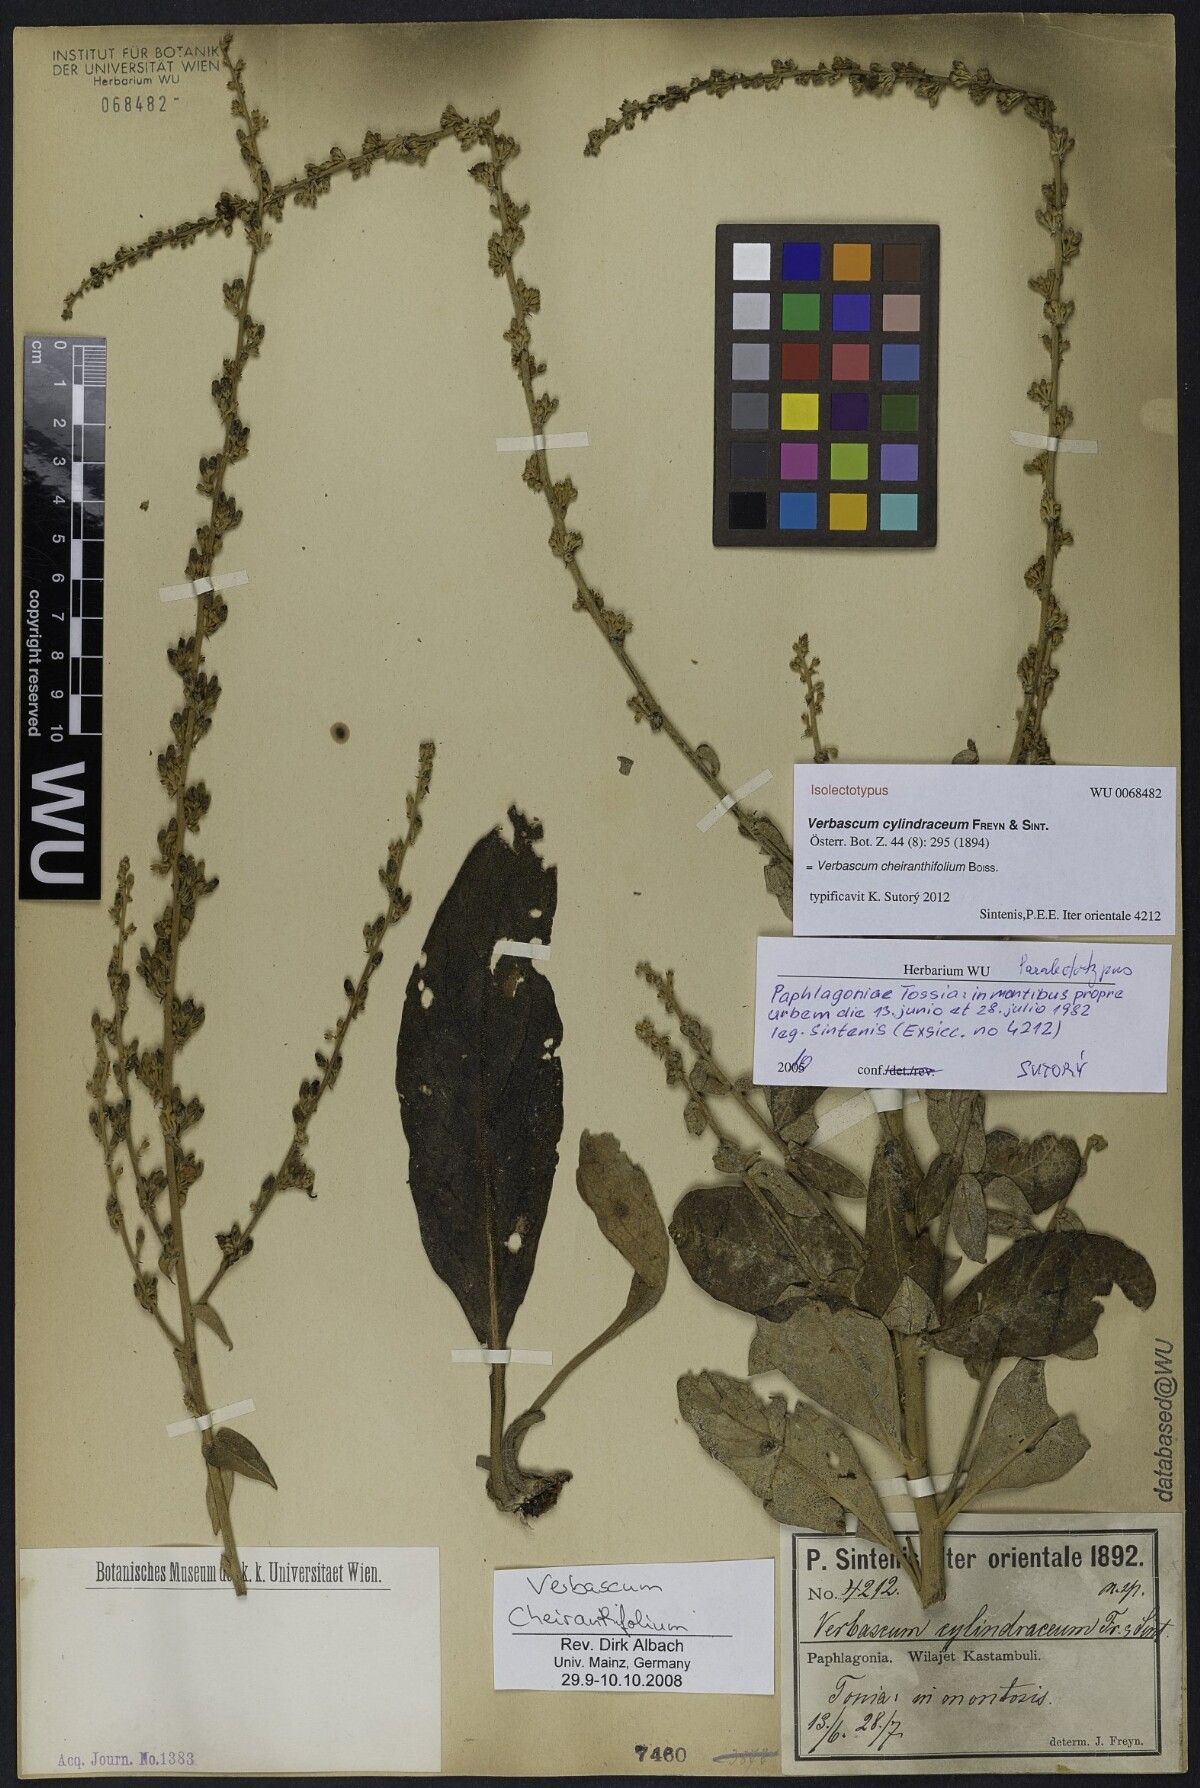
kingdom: Plantae
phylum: Tracheophyta
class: Magnoliopsida
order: Lamiales
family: Scrophulariaceae
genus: Verbascum
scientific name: Verbascum cheiranthifollum
